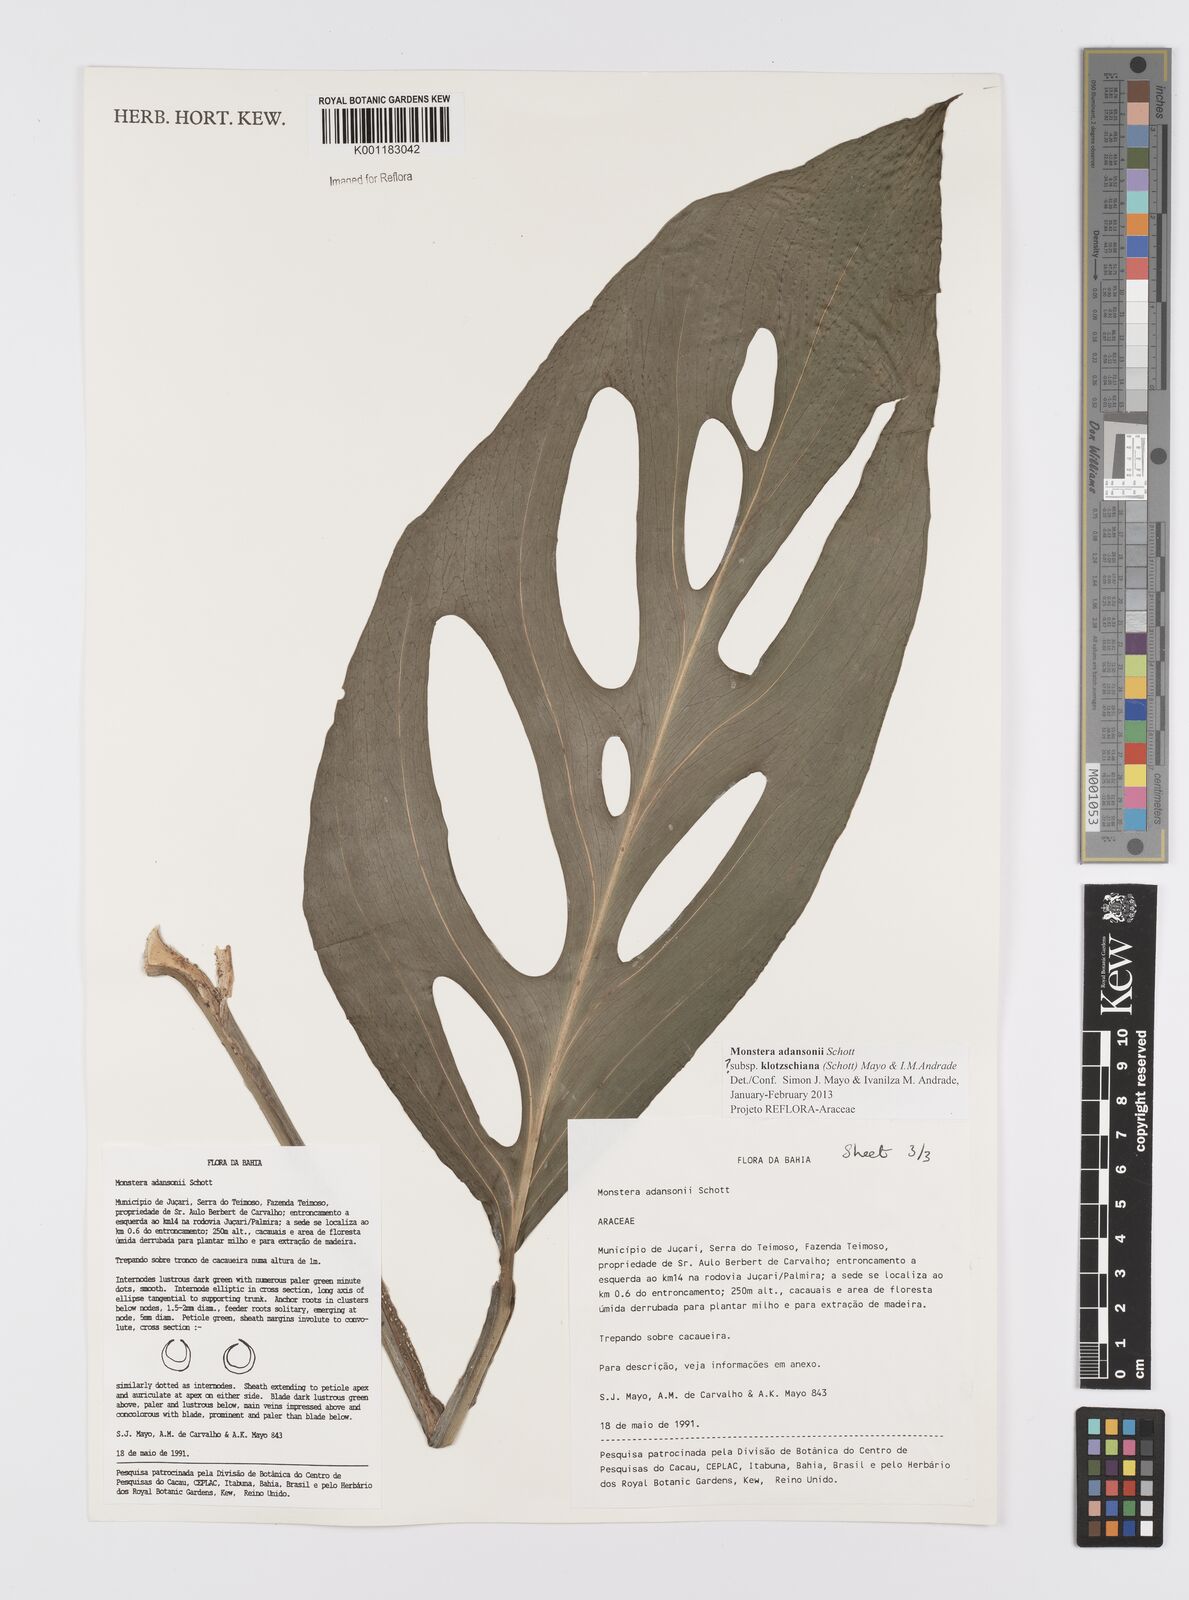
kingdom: Plantae
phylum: Tracheophyta
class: Liliopsida
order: Alismatales
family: Araceae
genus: Monstera
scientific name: Monstera adansonii
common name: Tarovine
